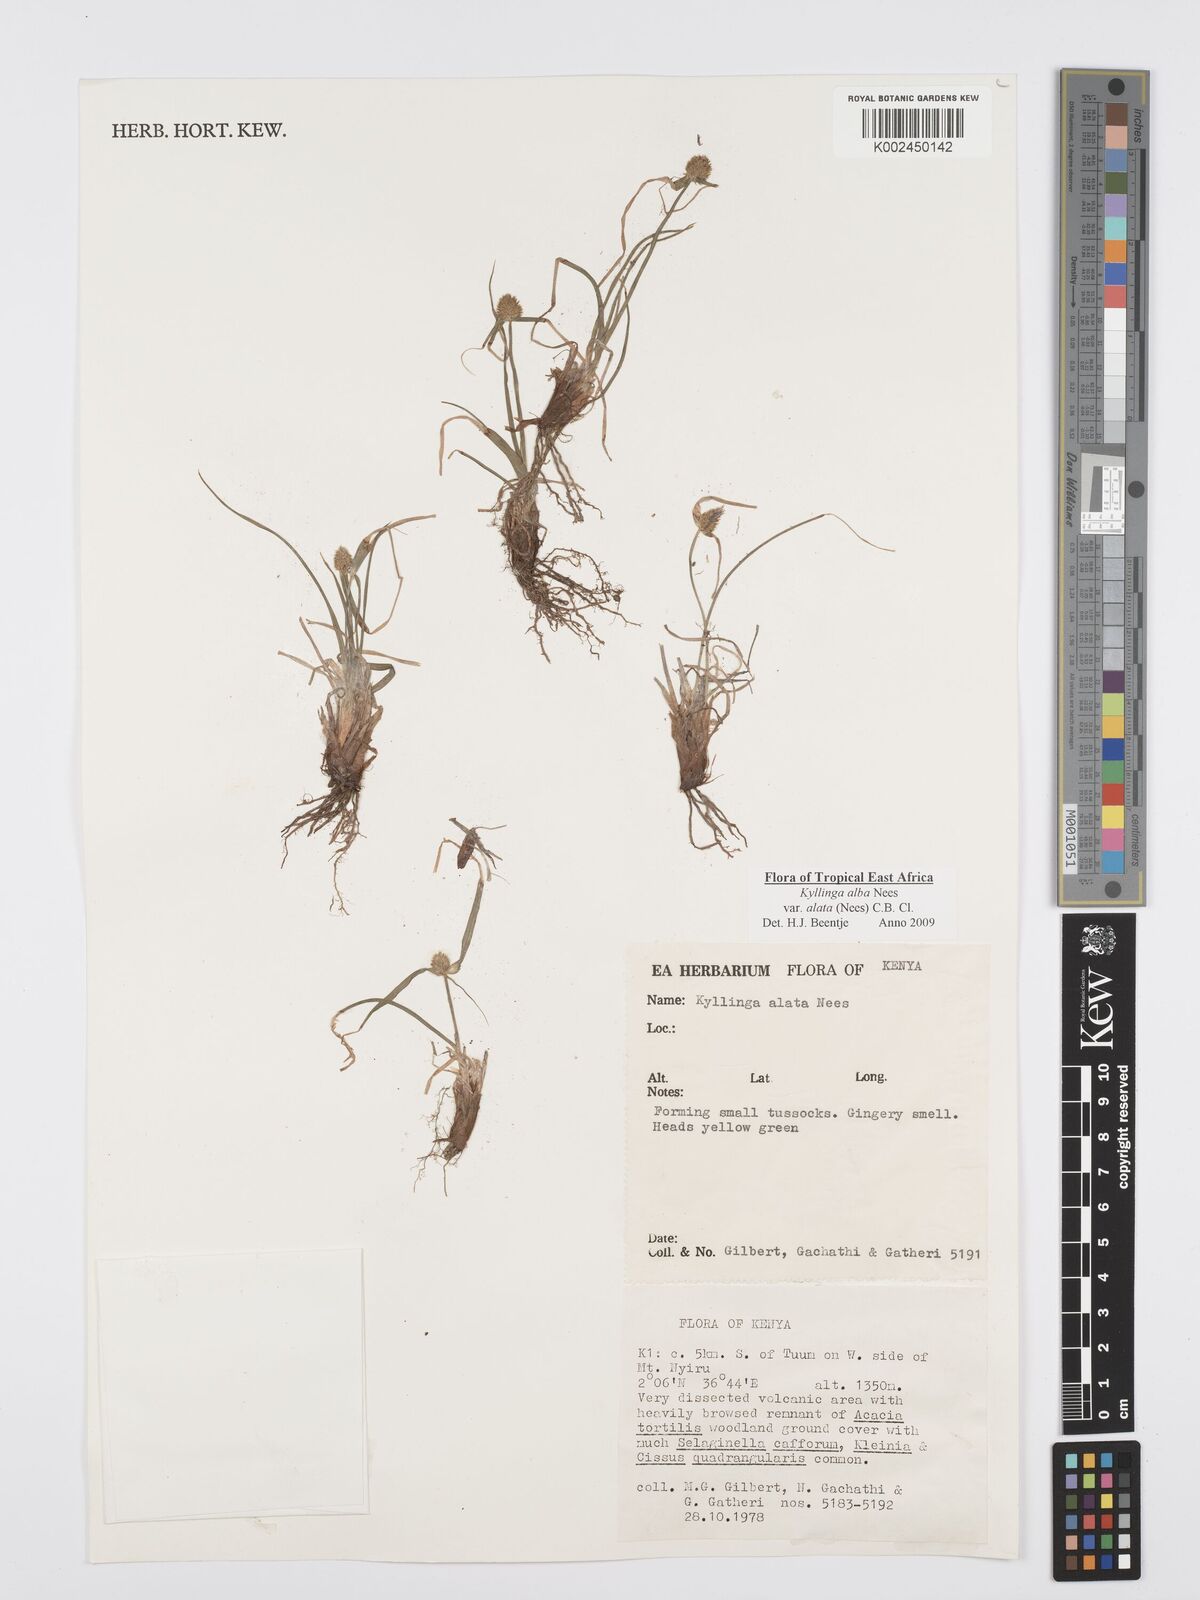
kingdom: Plantae
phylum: Tracheophyta
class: Liliopsida
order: Poales
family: Cyperaceae
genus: Cyperus
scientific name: Cyperus alatus
